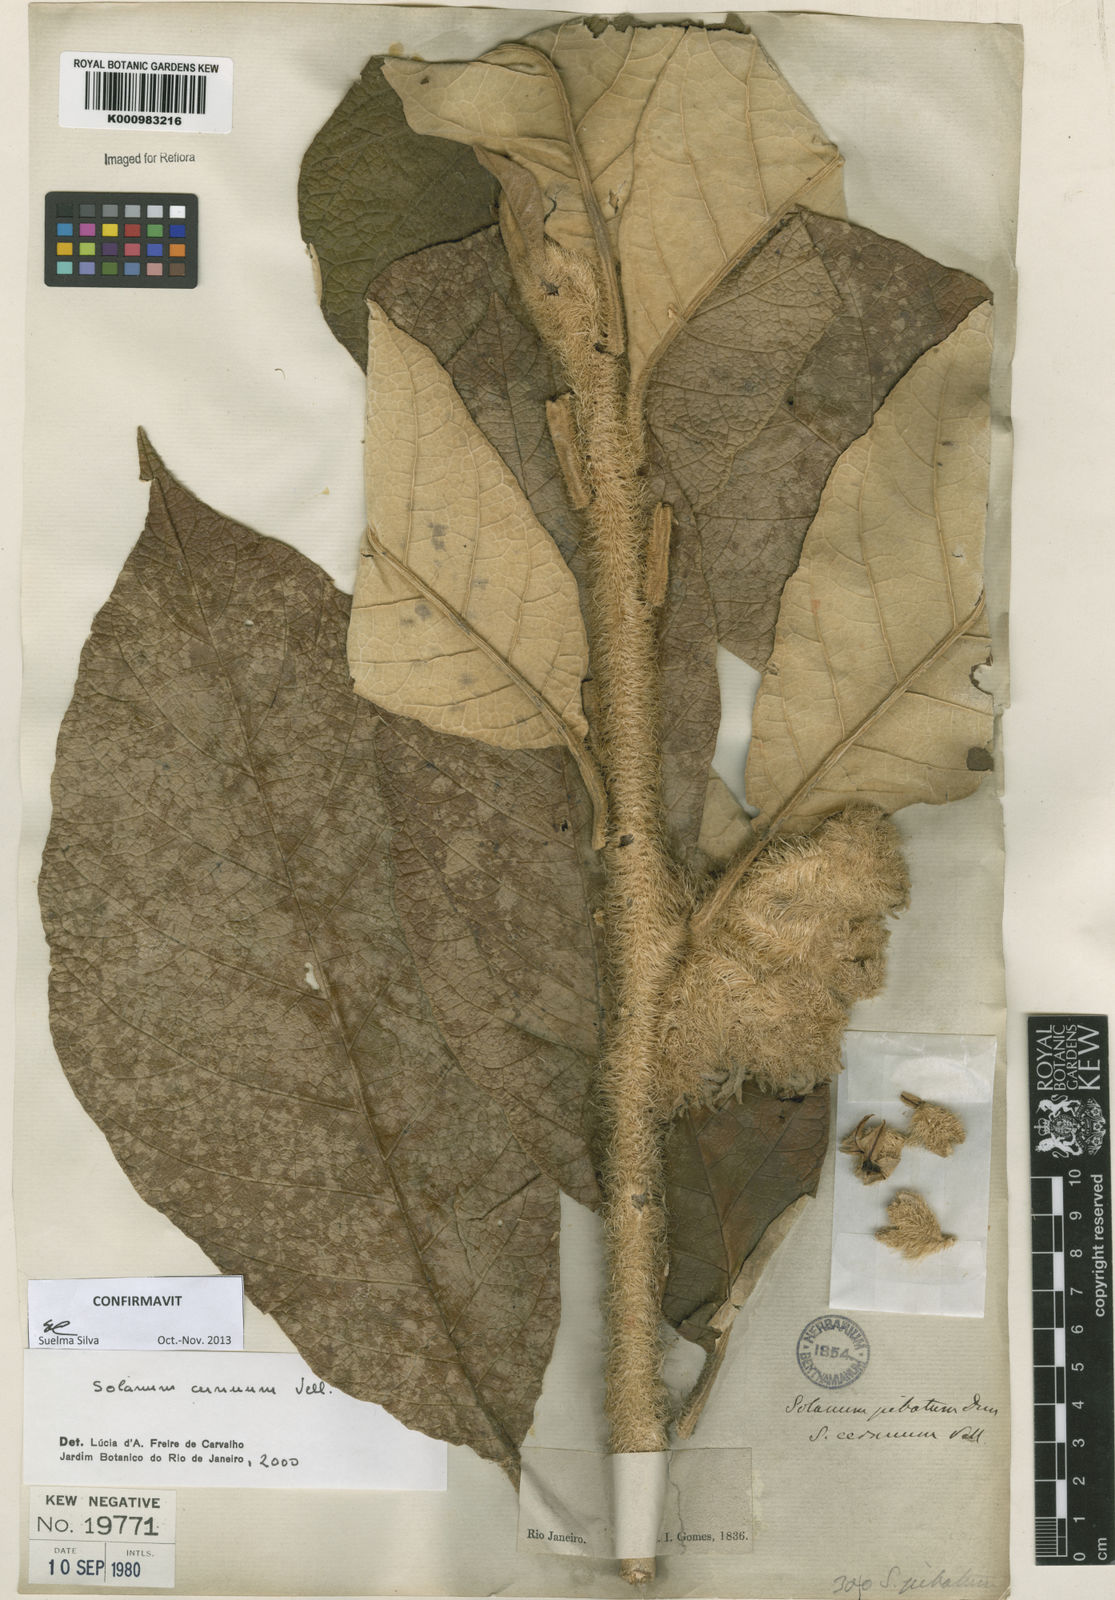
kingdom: Plantae
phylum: Tracheophyta
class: Magnoliopsida
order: Solanales
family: Solanaceae
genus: Solanum
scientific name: Solanum cernuum
